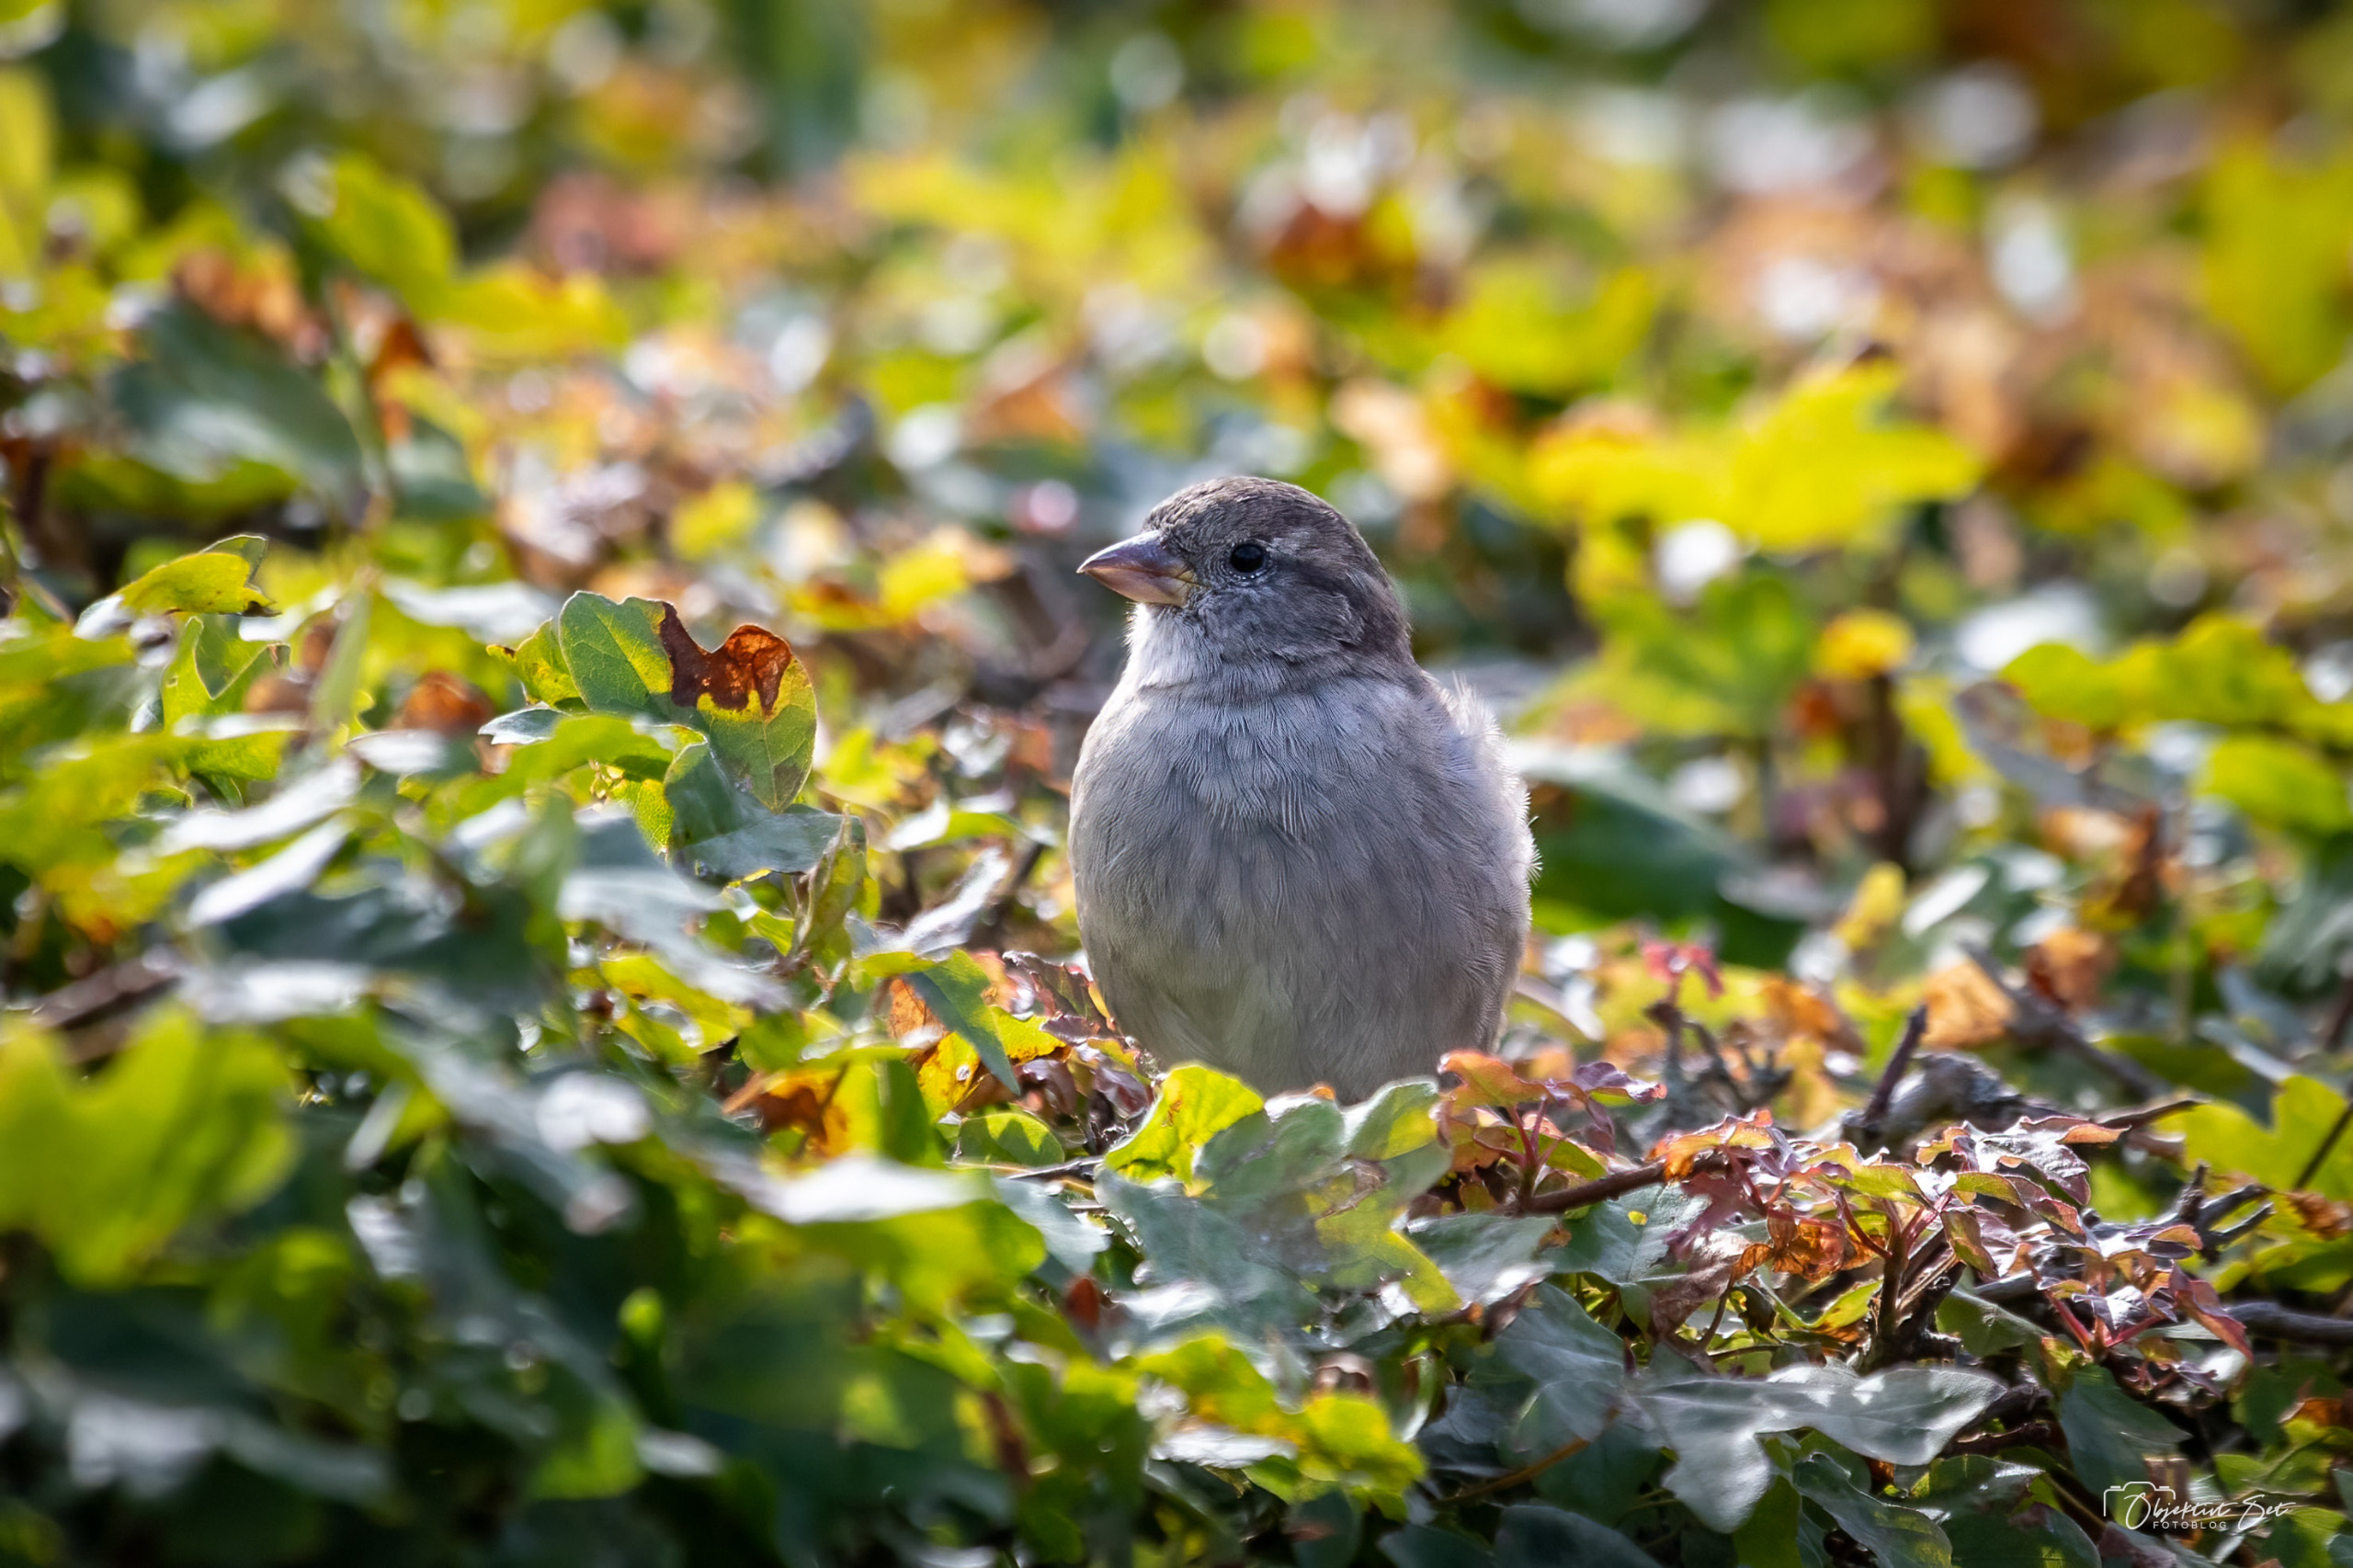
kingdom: Animalia
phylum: Chordata
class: Aves
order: Passeriformes
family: Passeridae
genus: Passer
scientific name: Passer domesticus
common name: Gråspurv
